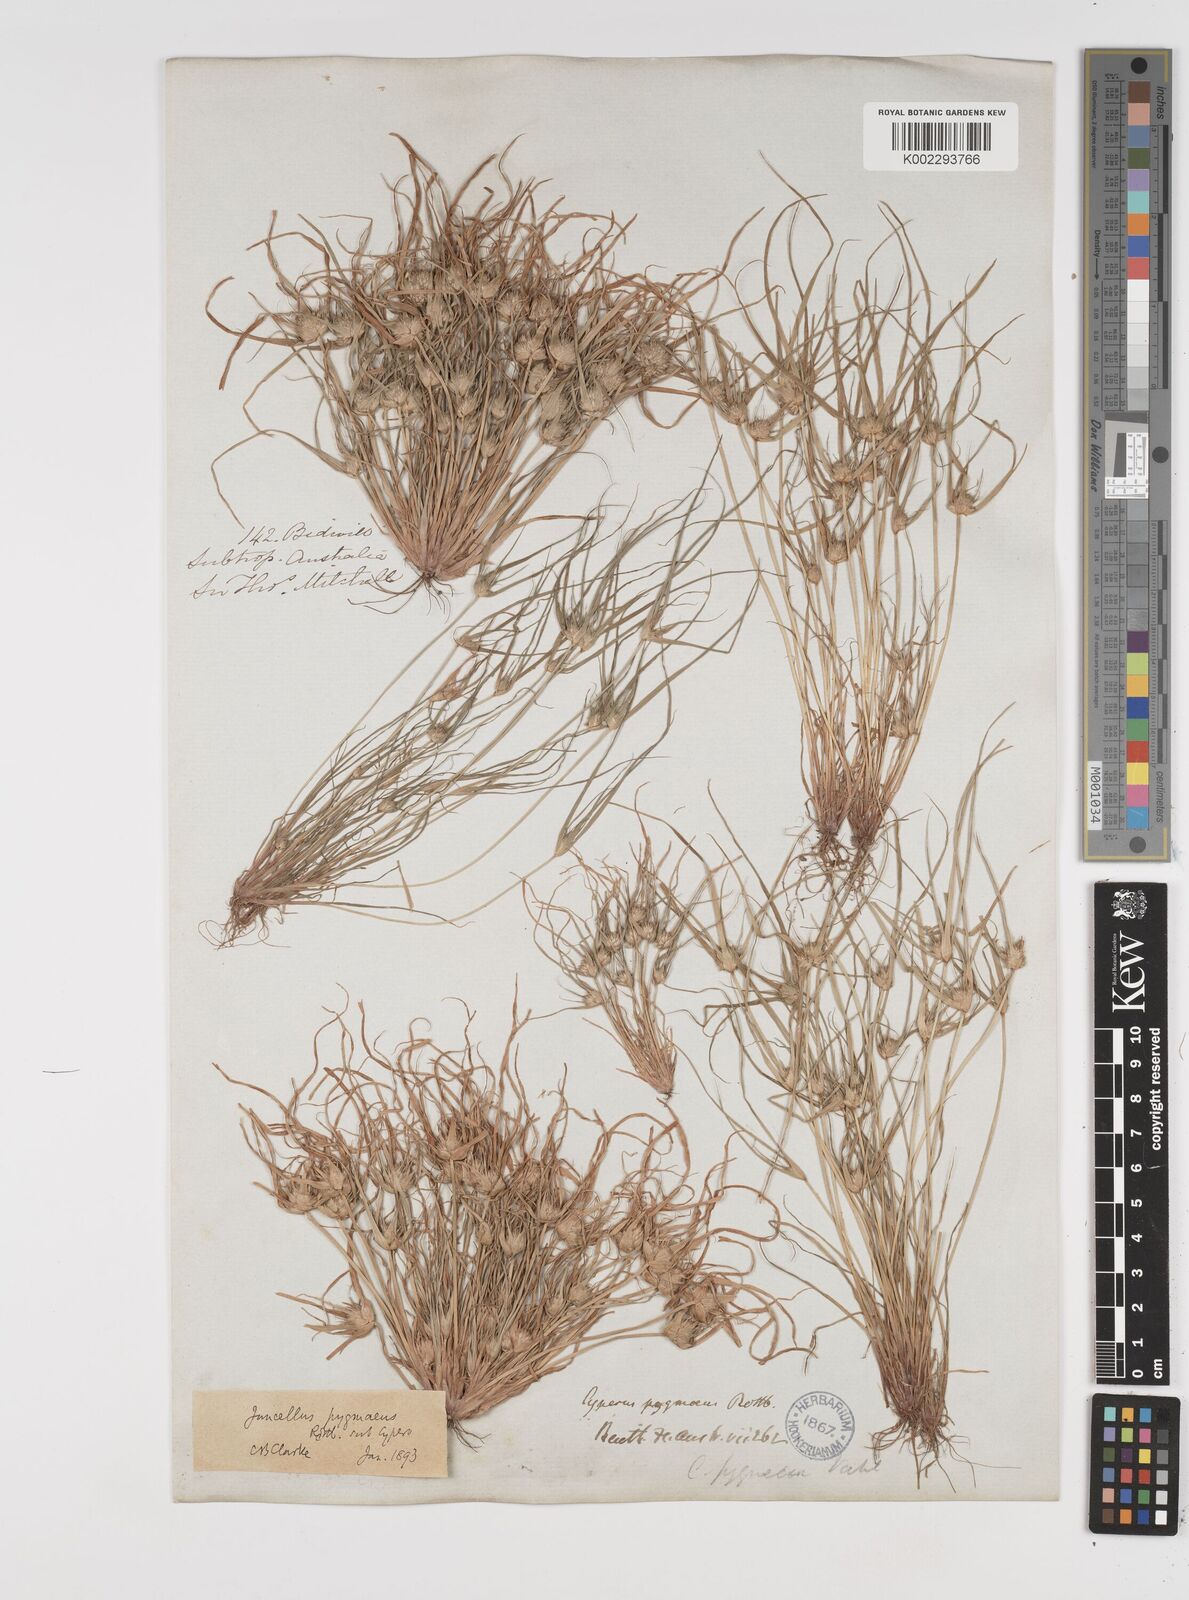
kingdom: Plantae
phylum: Tracheophyta
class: Liliopsida
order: Poales
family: Cyperaceae
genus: Cyperus
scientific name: Cyperus michelianus
